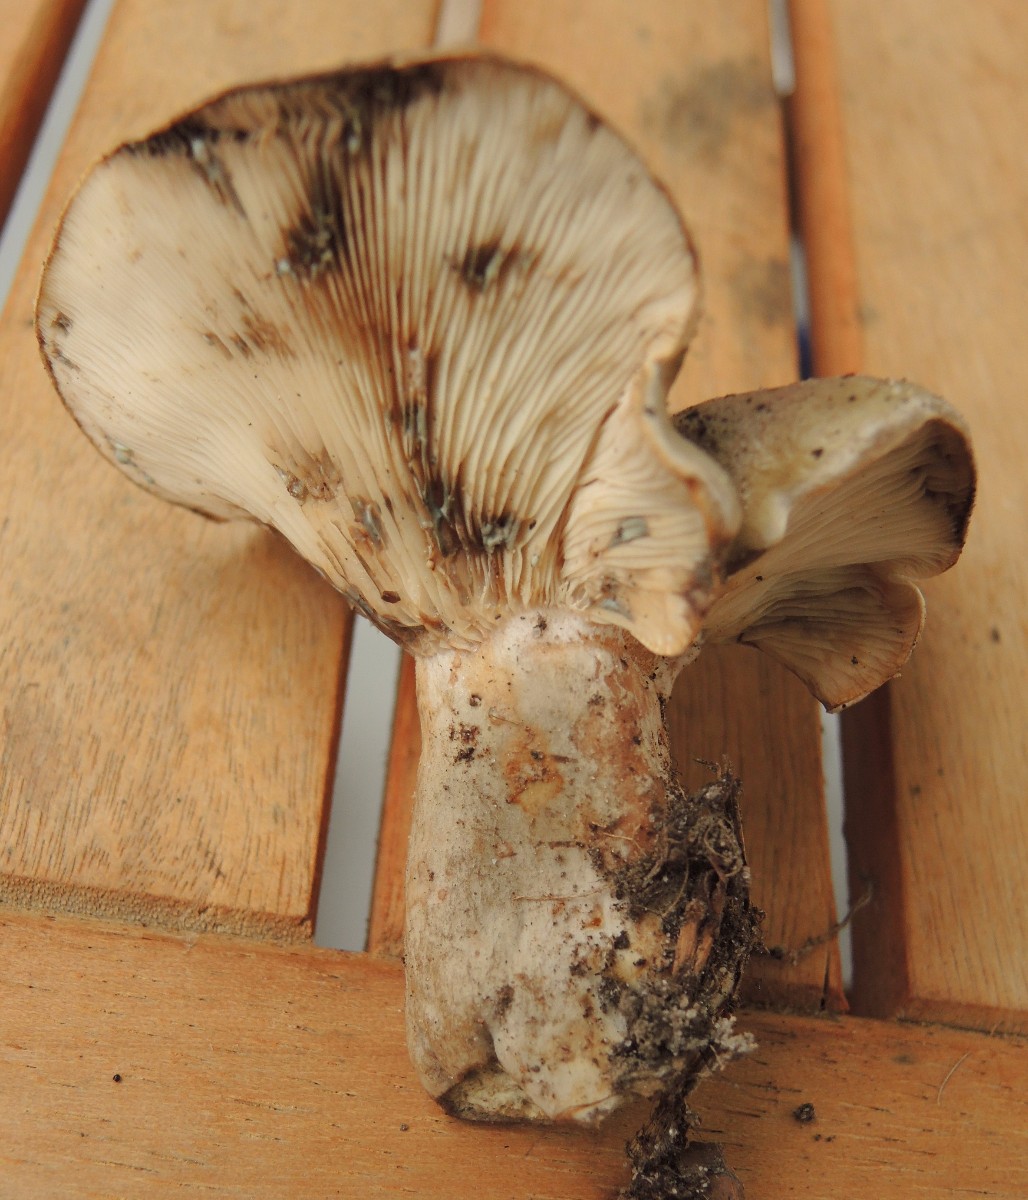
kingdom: Fungi
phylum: Basidiomycota
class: Agaricomycetes
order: Russulales
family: Russulaceae
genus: Lactarius
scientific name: Lactarius fluens
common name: lysrandet mælkehat
